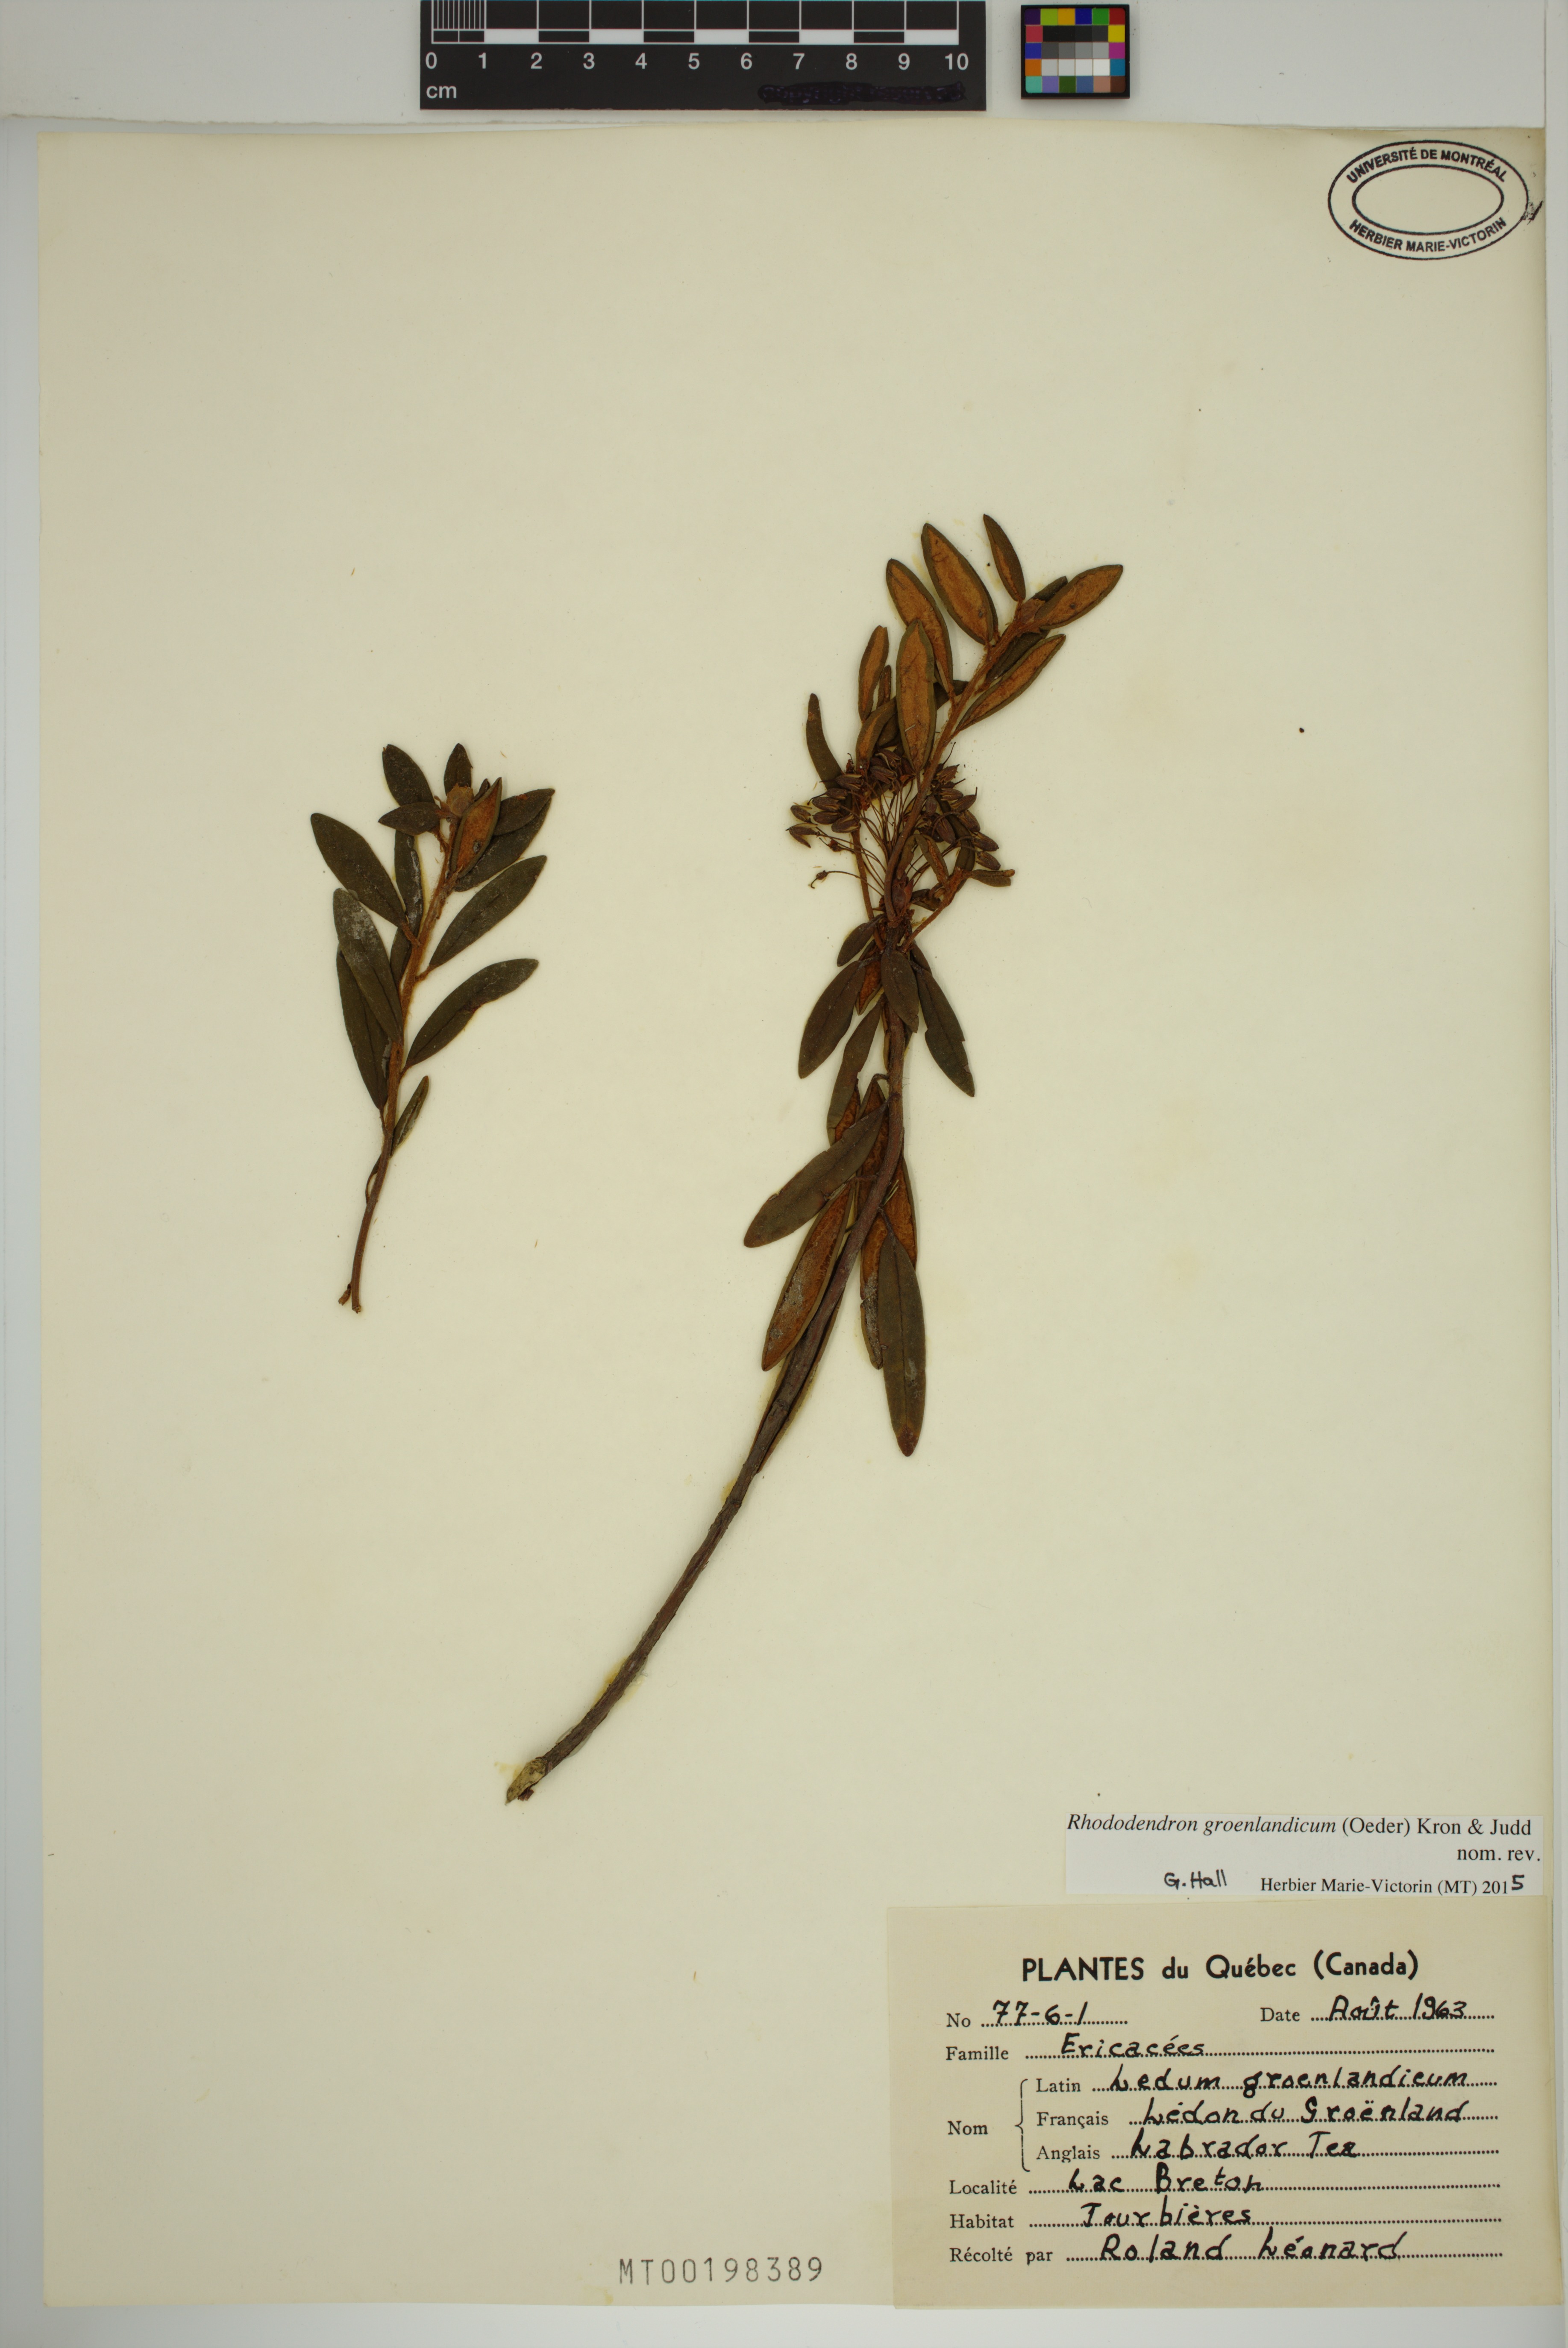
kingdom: Plantae
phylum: Tracheophyta
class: Magnoliopsida
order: Ericales
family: Ericaceae
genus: Rhododendron
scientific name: Rhododendron groenlandicum
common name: Bog labrador tea
